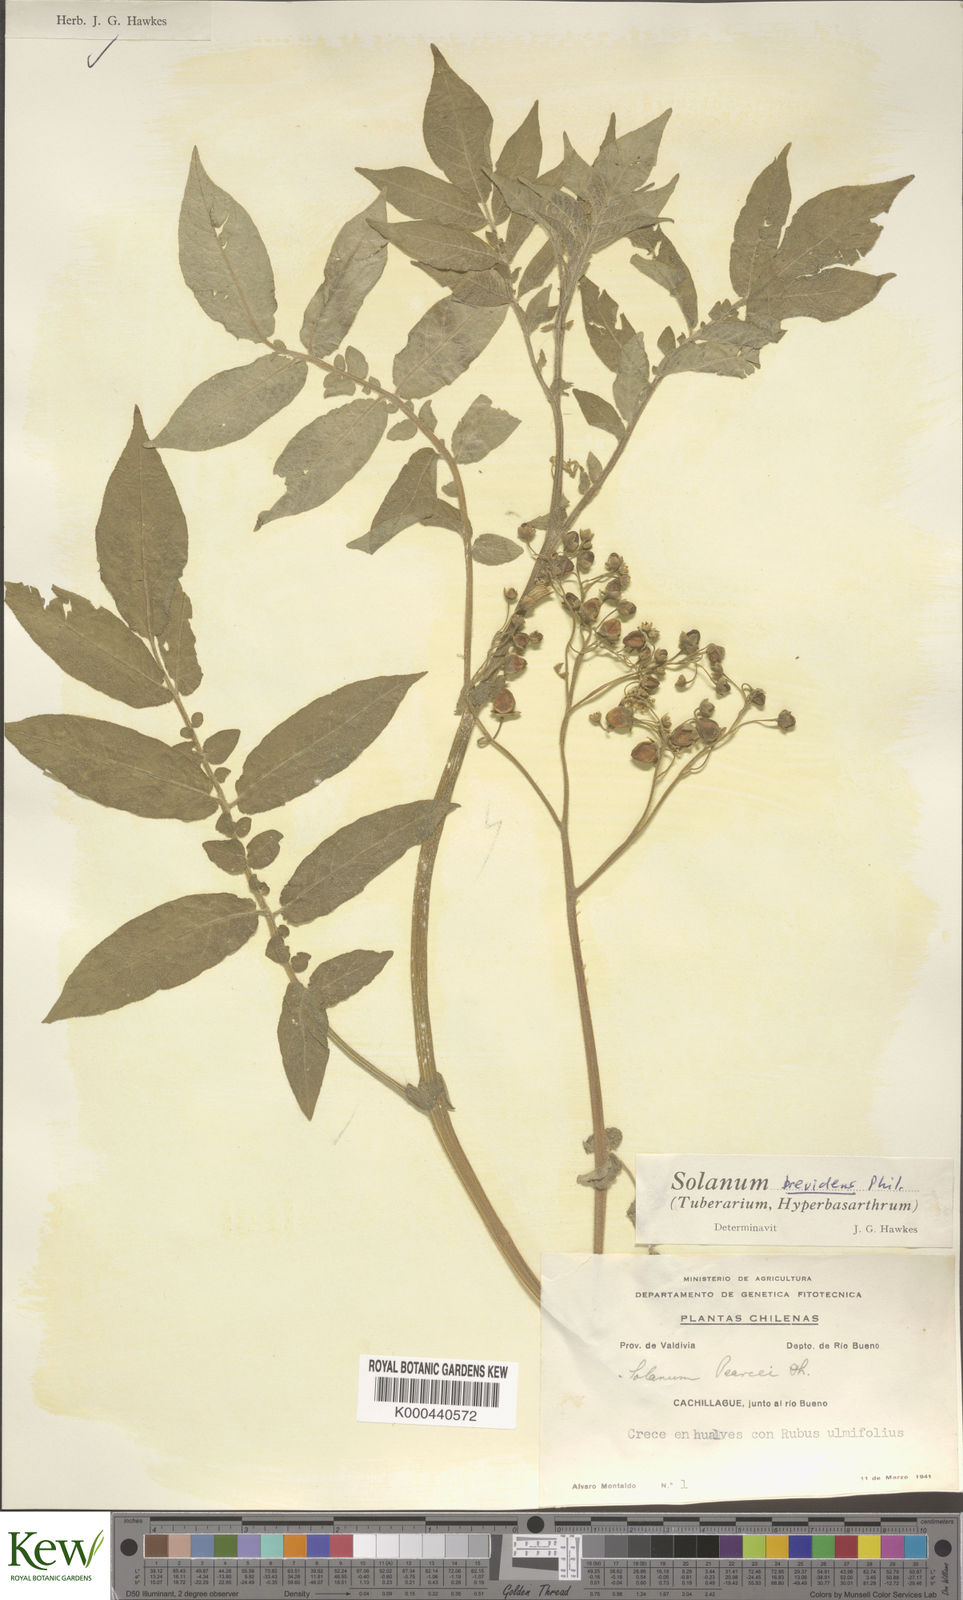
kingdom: Plantae
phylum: Tracheophyta
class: Magnoliopsida
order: Solanales
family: Solanaceae
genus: Solanum
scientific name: Solanum palustre
